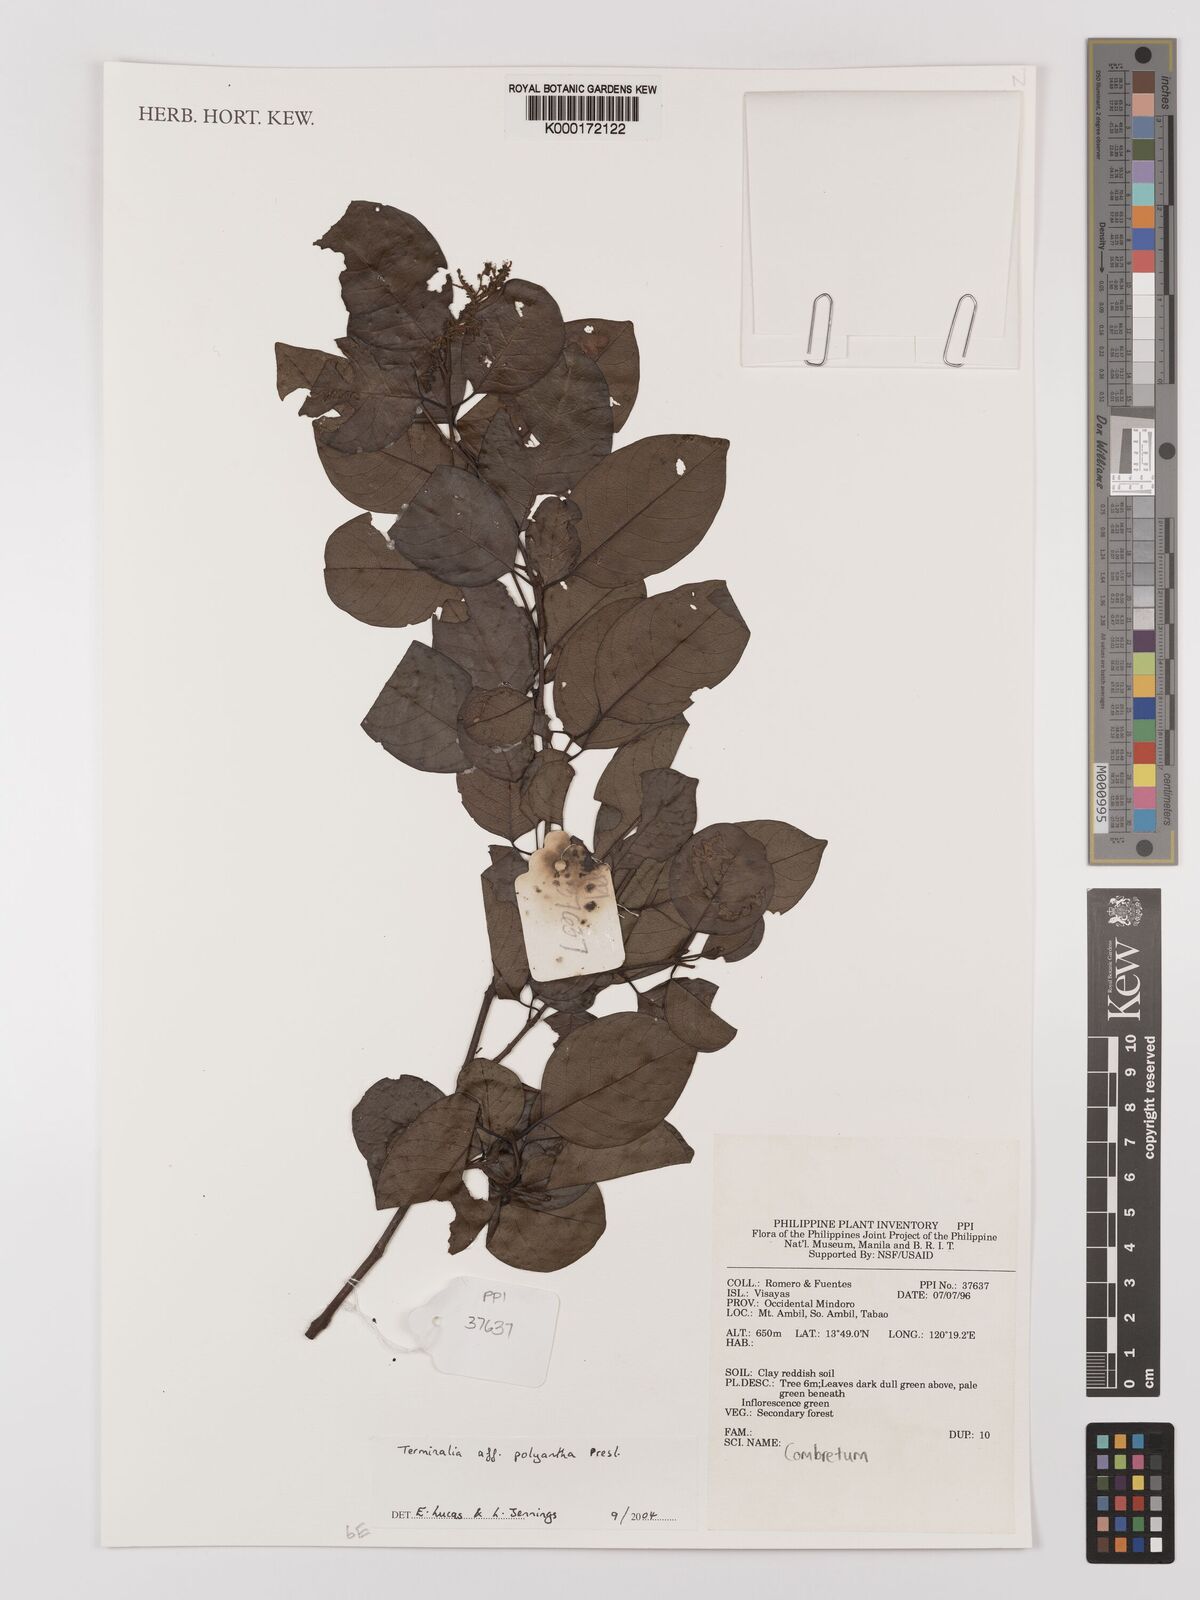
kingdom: Plantae
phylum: Tracheophyta
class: Magnoliopsida
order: Myrtales
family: Combretaceae
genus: Terminalia
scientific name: Terminalia polyantha
